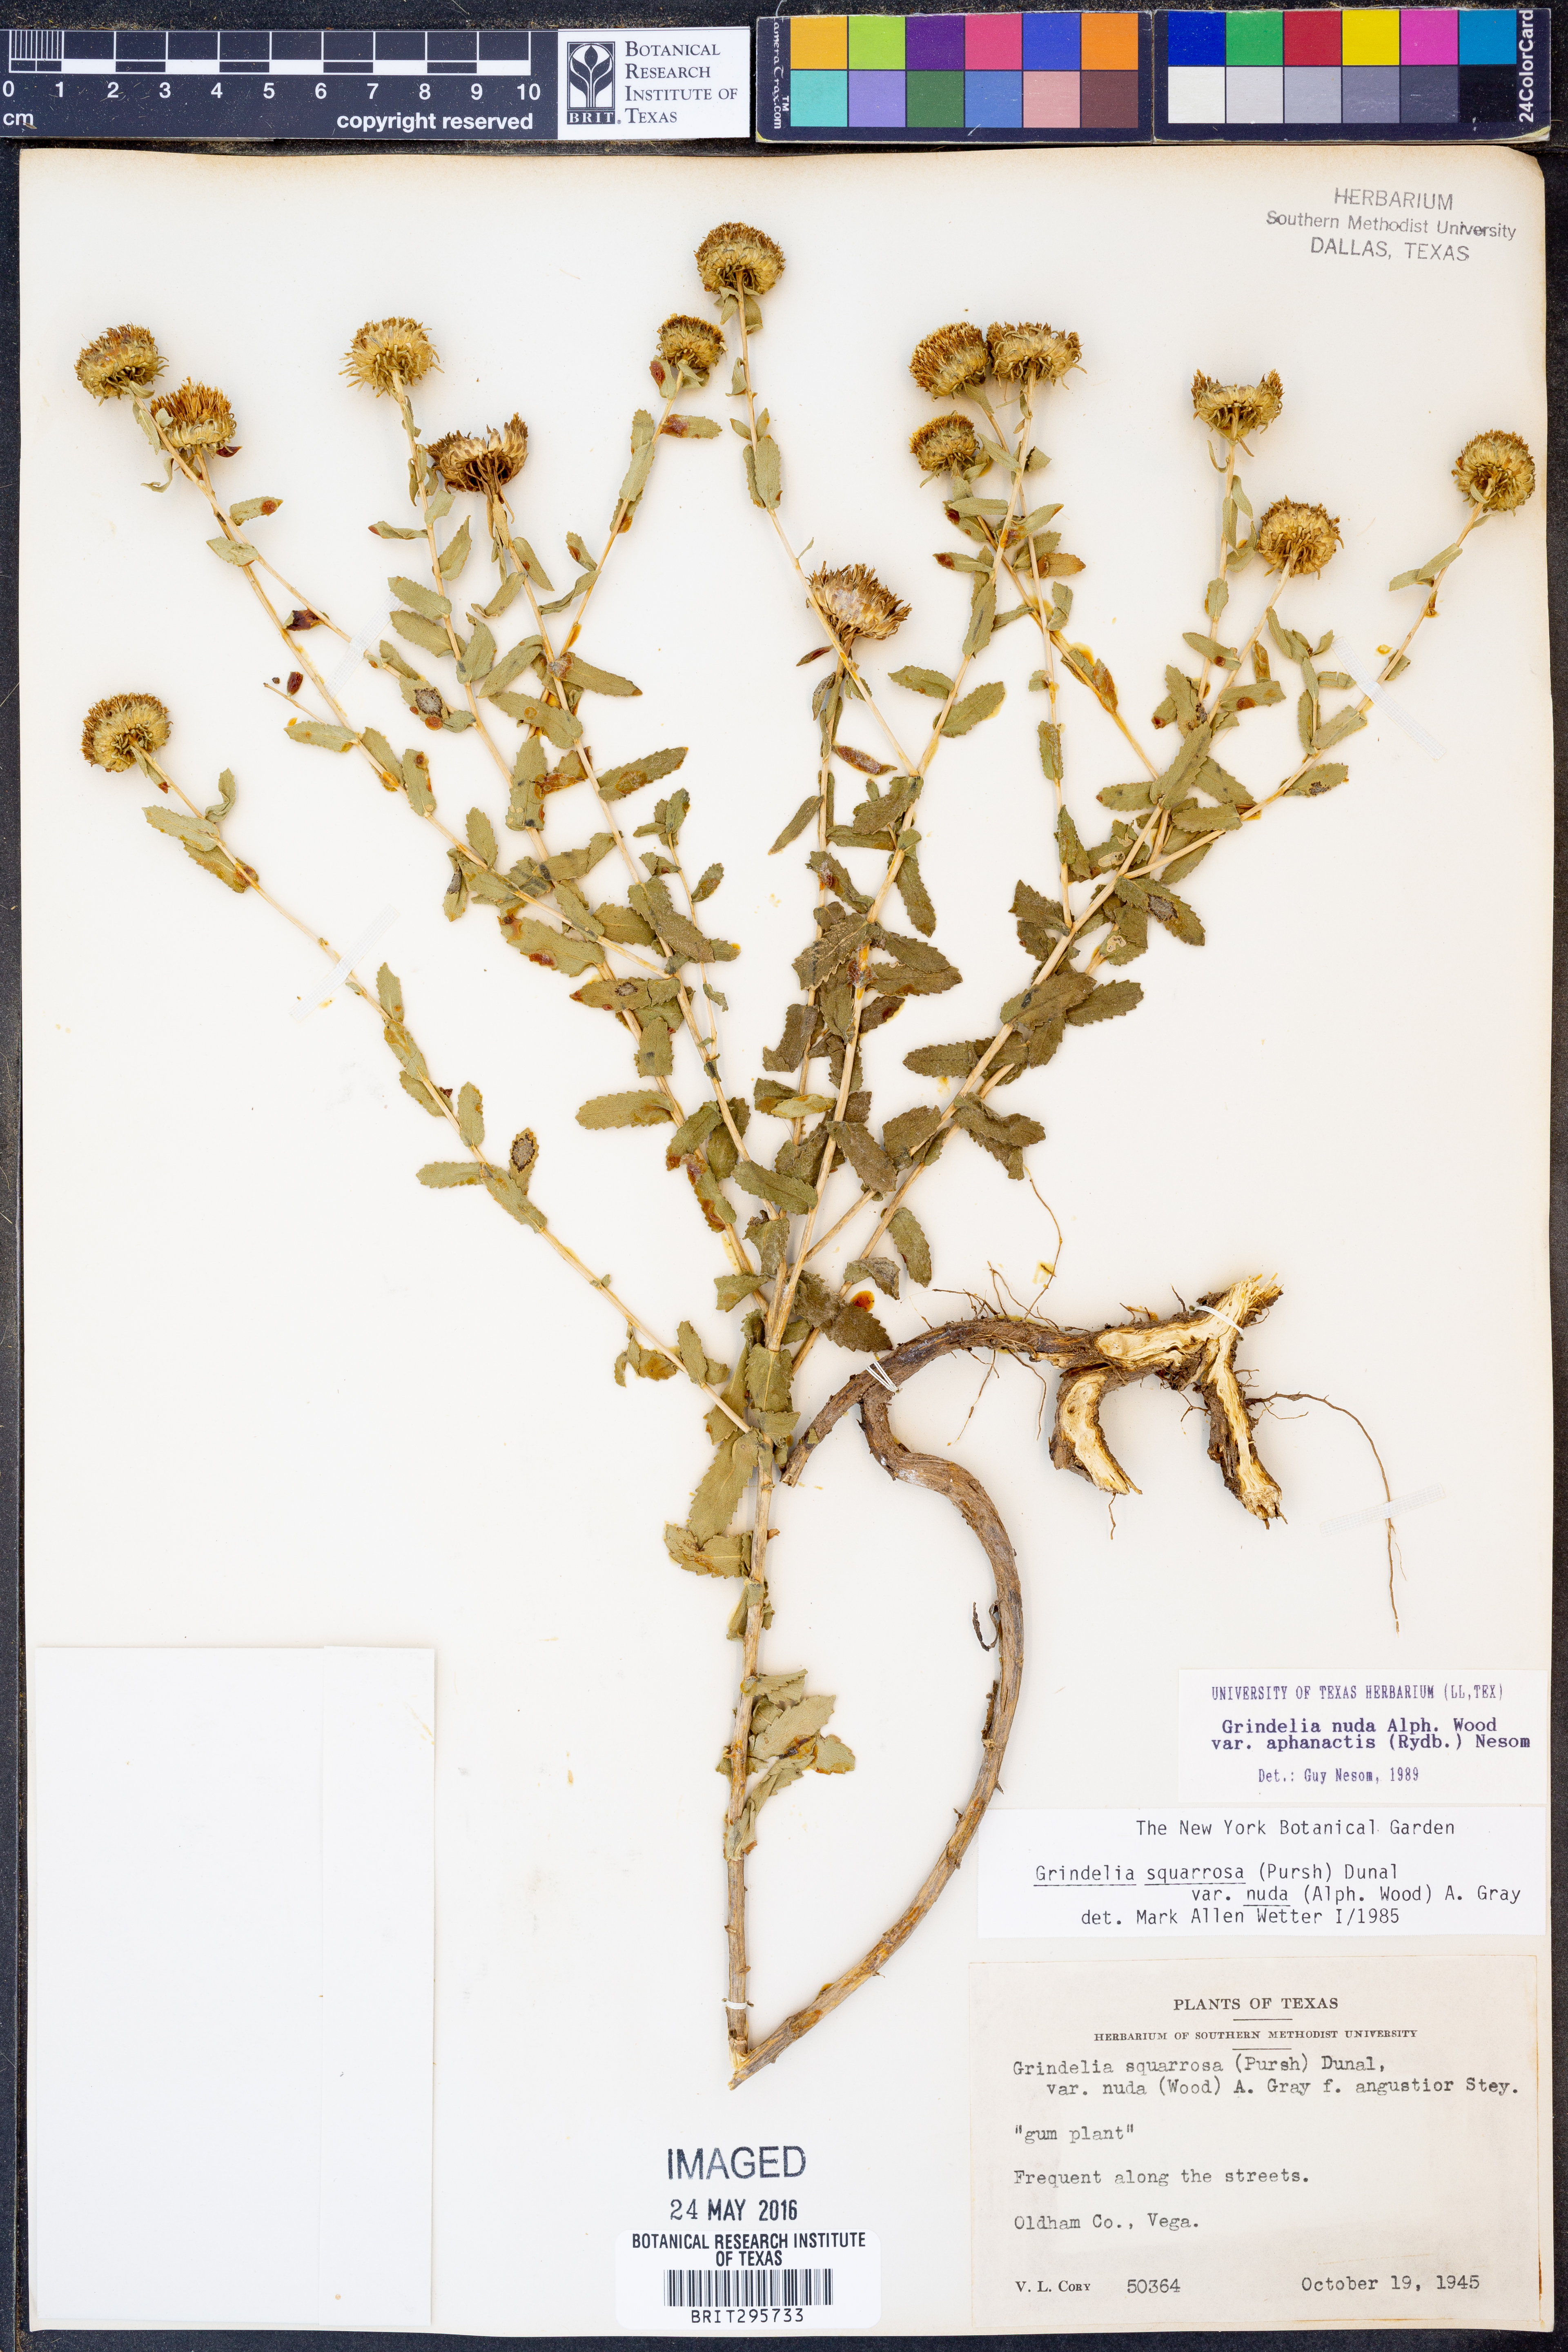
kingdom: Plantae
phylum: Tracheophyta
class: Magnoliopsida
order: Asterales
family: Asteraceae
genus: Grindelia
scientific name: Grindelia nuda
